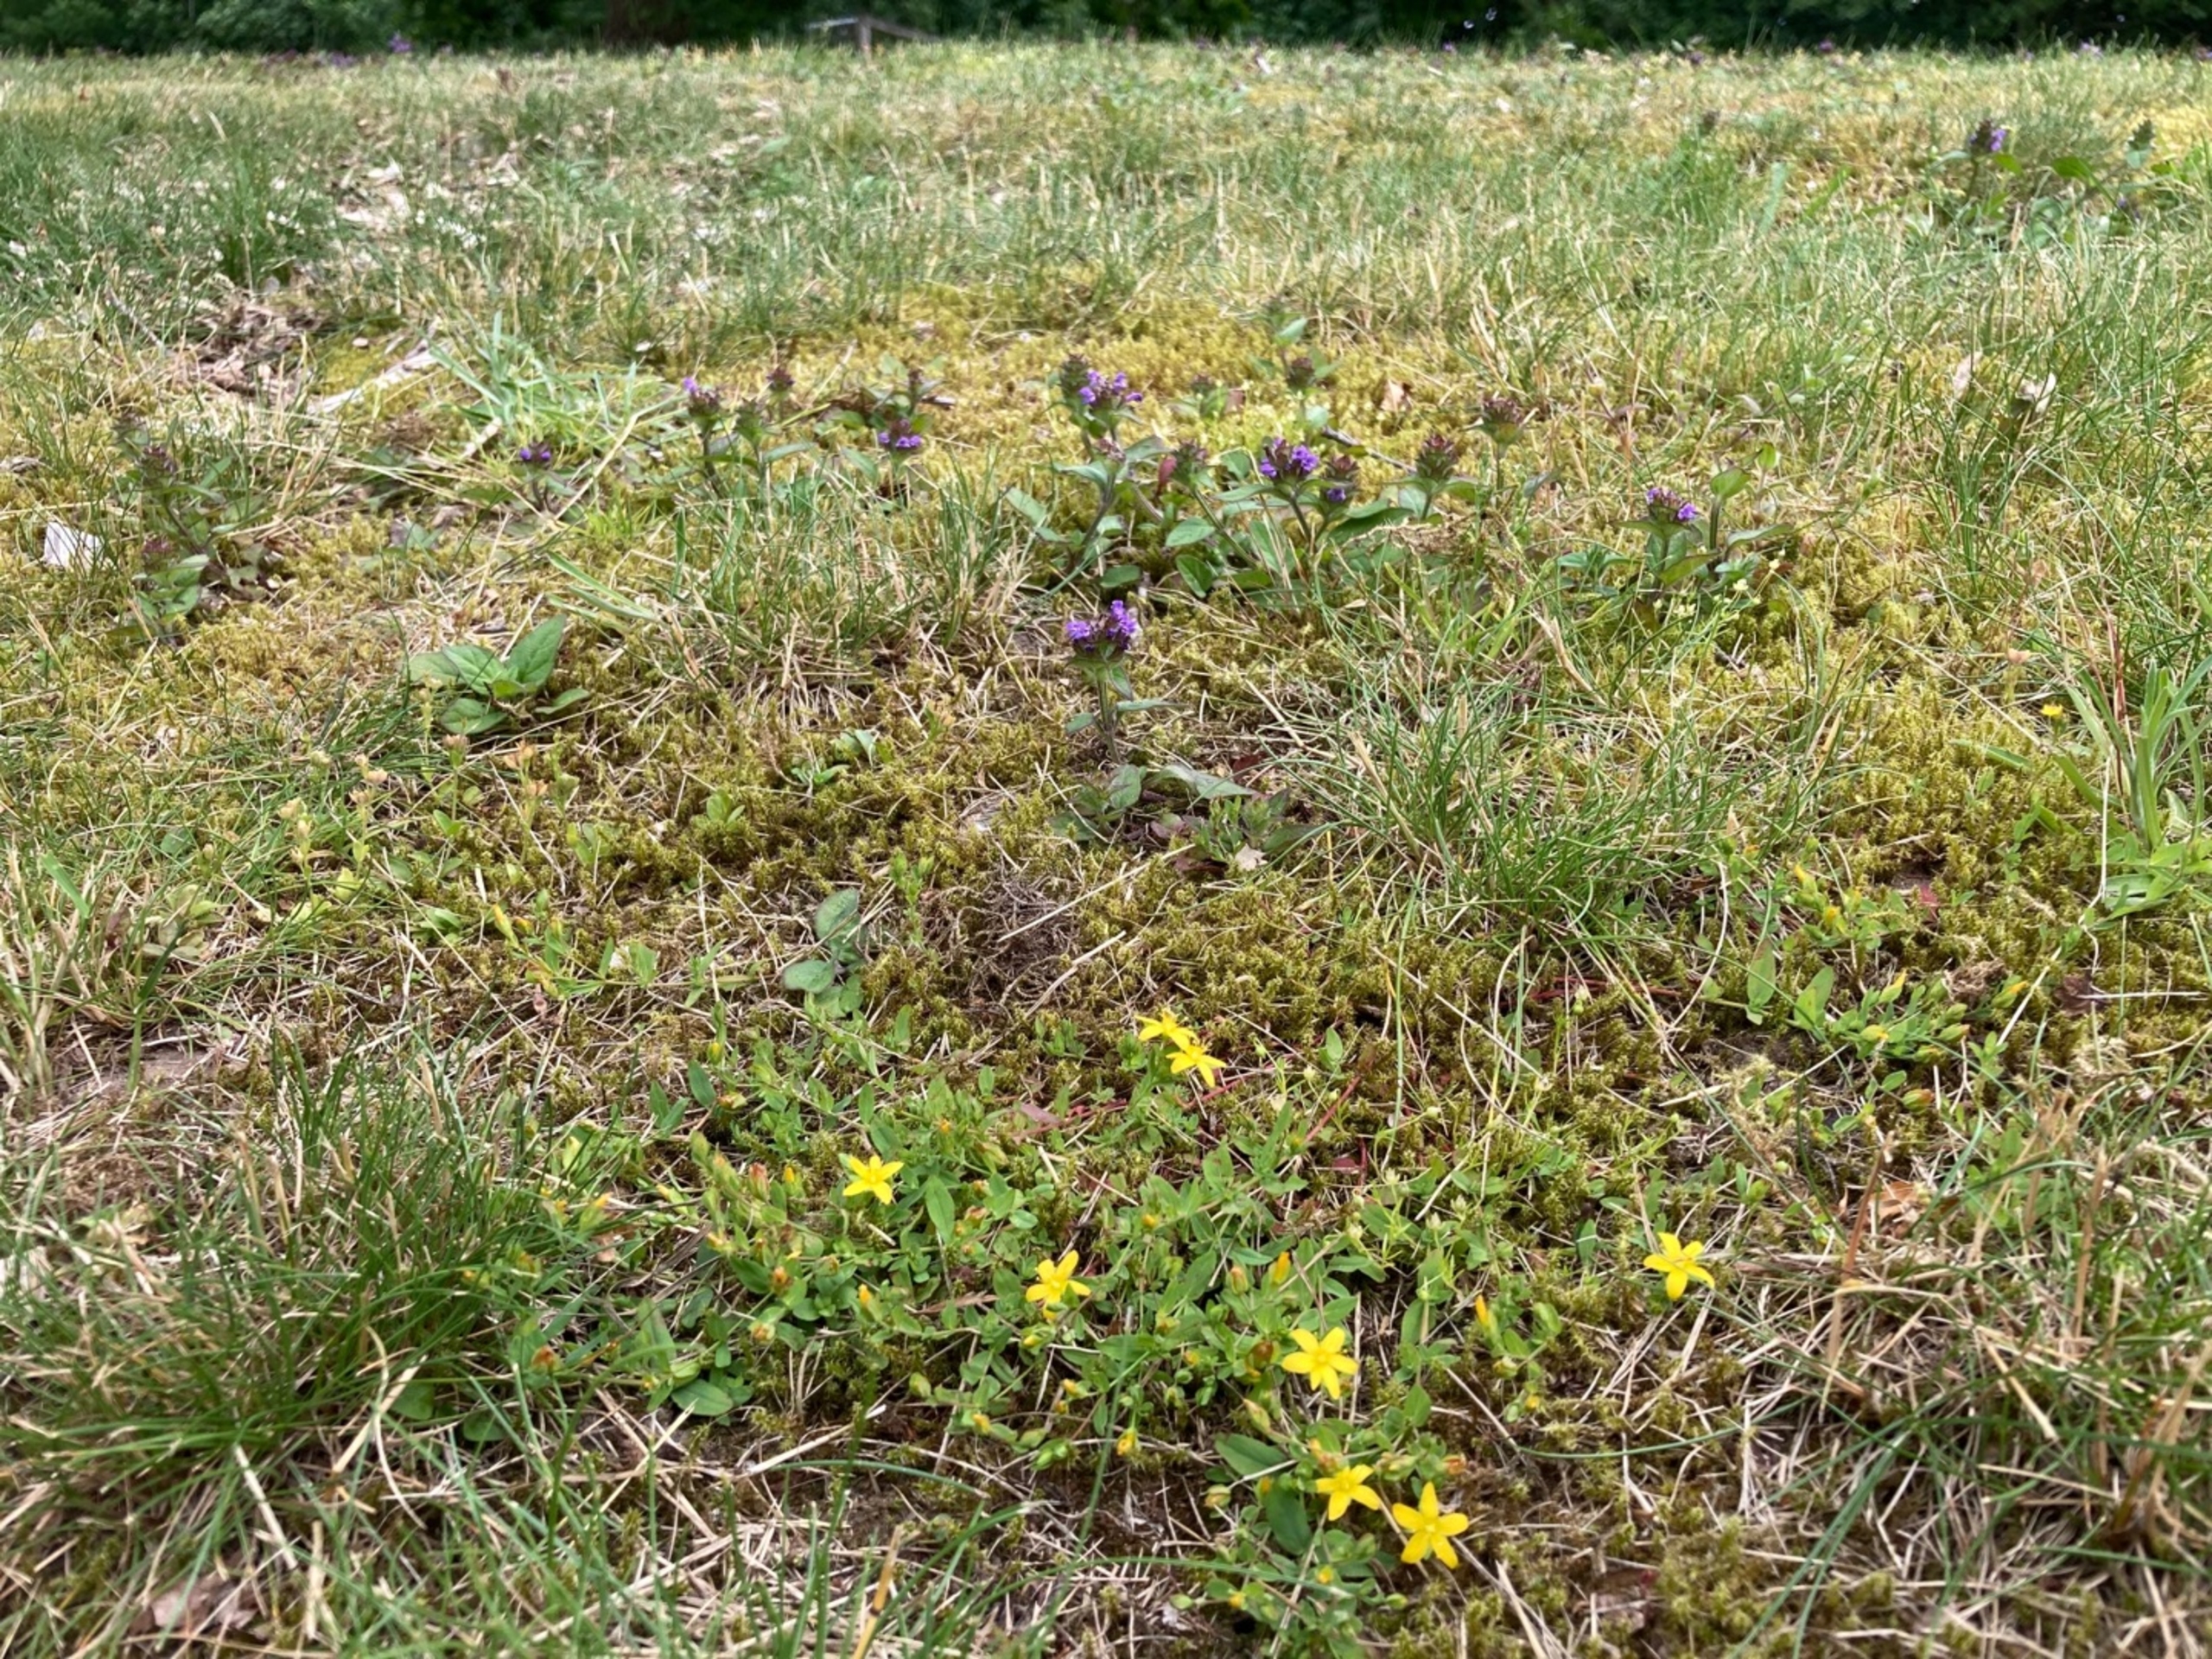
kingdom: Plantae
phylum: Tracheophyta
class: Magnoliopsida
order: Malpighiales
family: Hypericaceae
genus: Hypericum
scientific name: Hypericum humifusum
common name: Dværg-perikon
